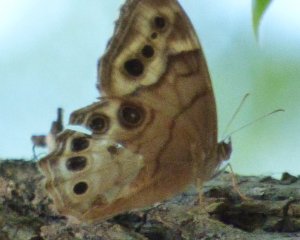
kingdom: Animalia
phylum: Arthropoda
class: Insecta
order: Lepidoptera
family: Nymphalidae
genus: Enodia
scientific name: Enodia portlandia
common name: Southern Pearly Eye
